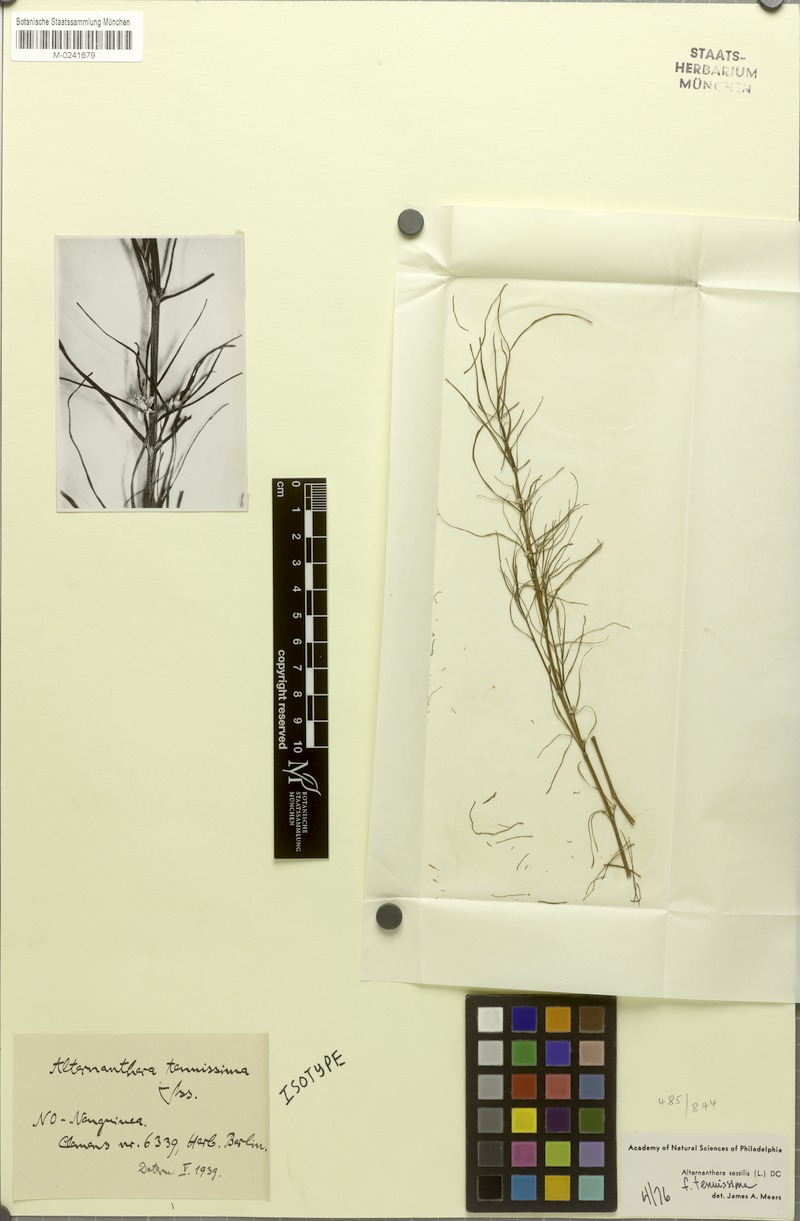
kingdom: Plantae
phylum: Tracheophyta
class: Magnoliopsida
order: Caryophyllales
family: Amaranthaceae
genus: Alternanthera
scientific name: Alternanthera sessilis
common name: Sessile joyweed
